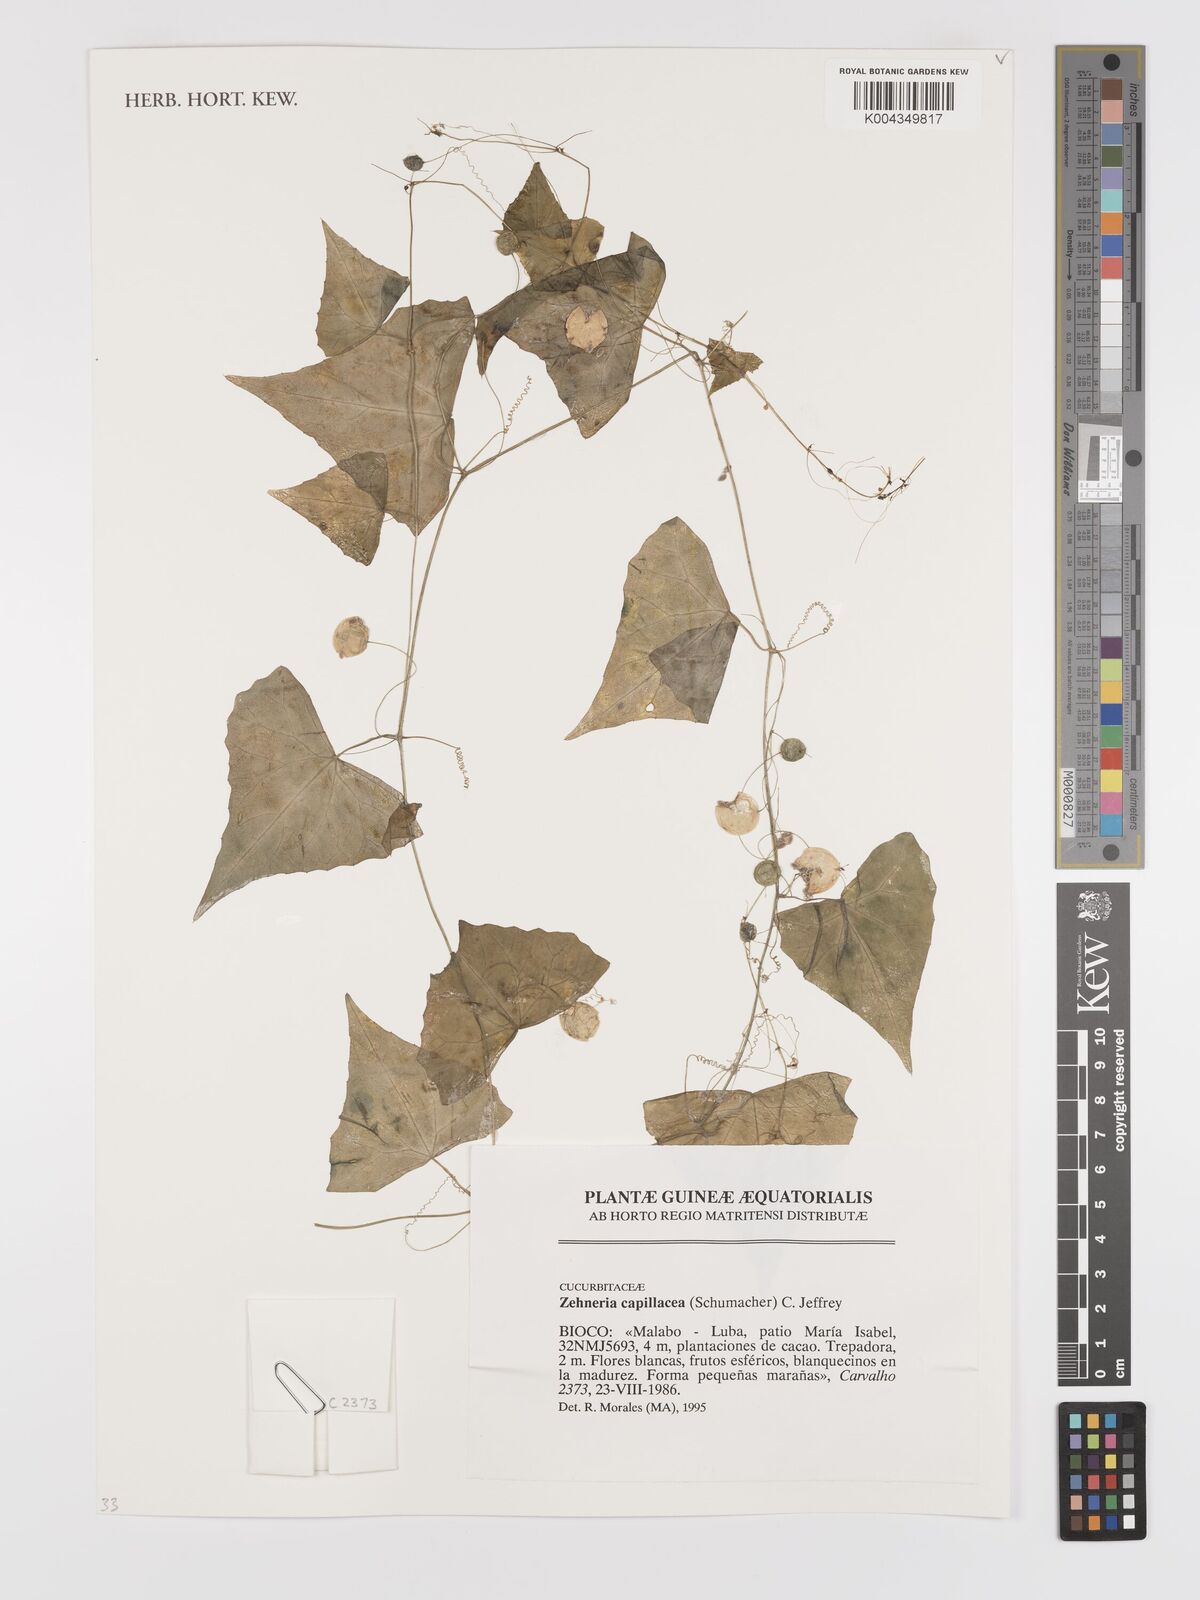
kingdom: Plantae
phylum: Tracheophyta
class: Magnoliopsida
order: Cucurbitales
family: Cucurbitaceae
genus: Zehneria
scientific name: Zehneria capillacea
